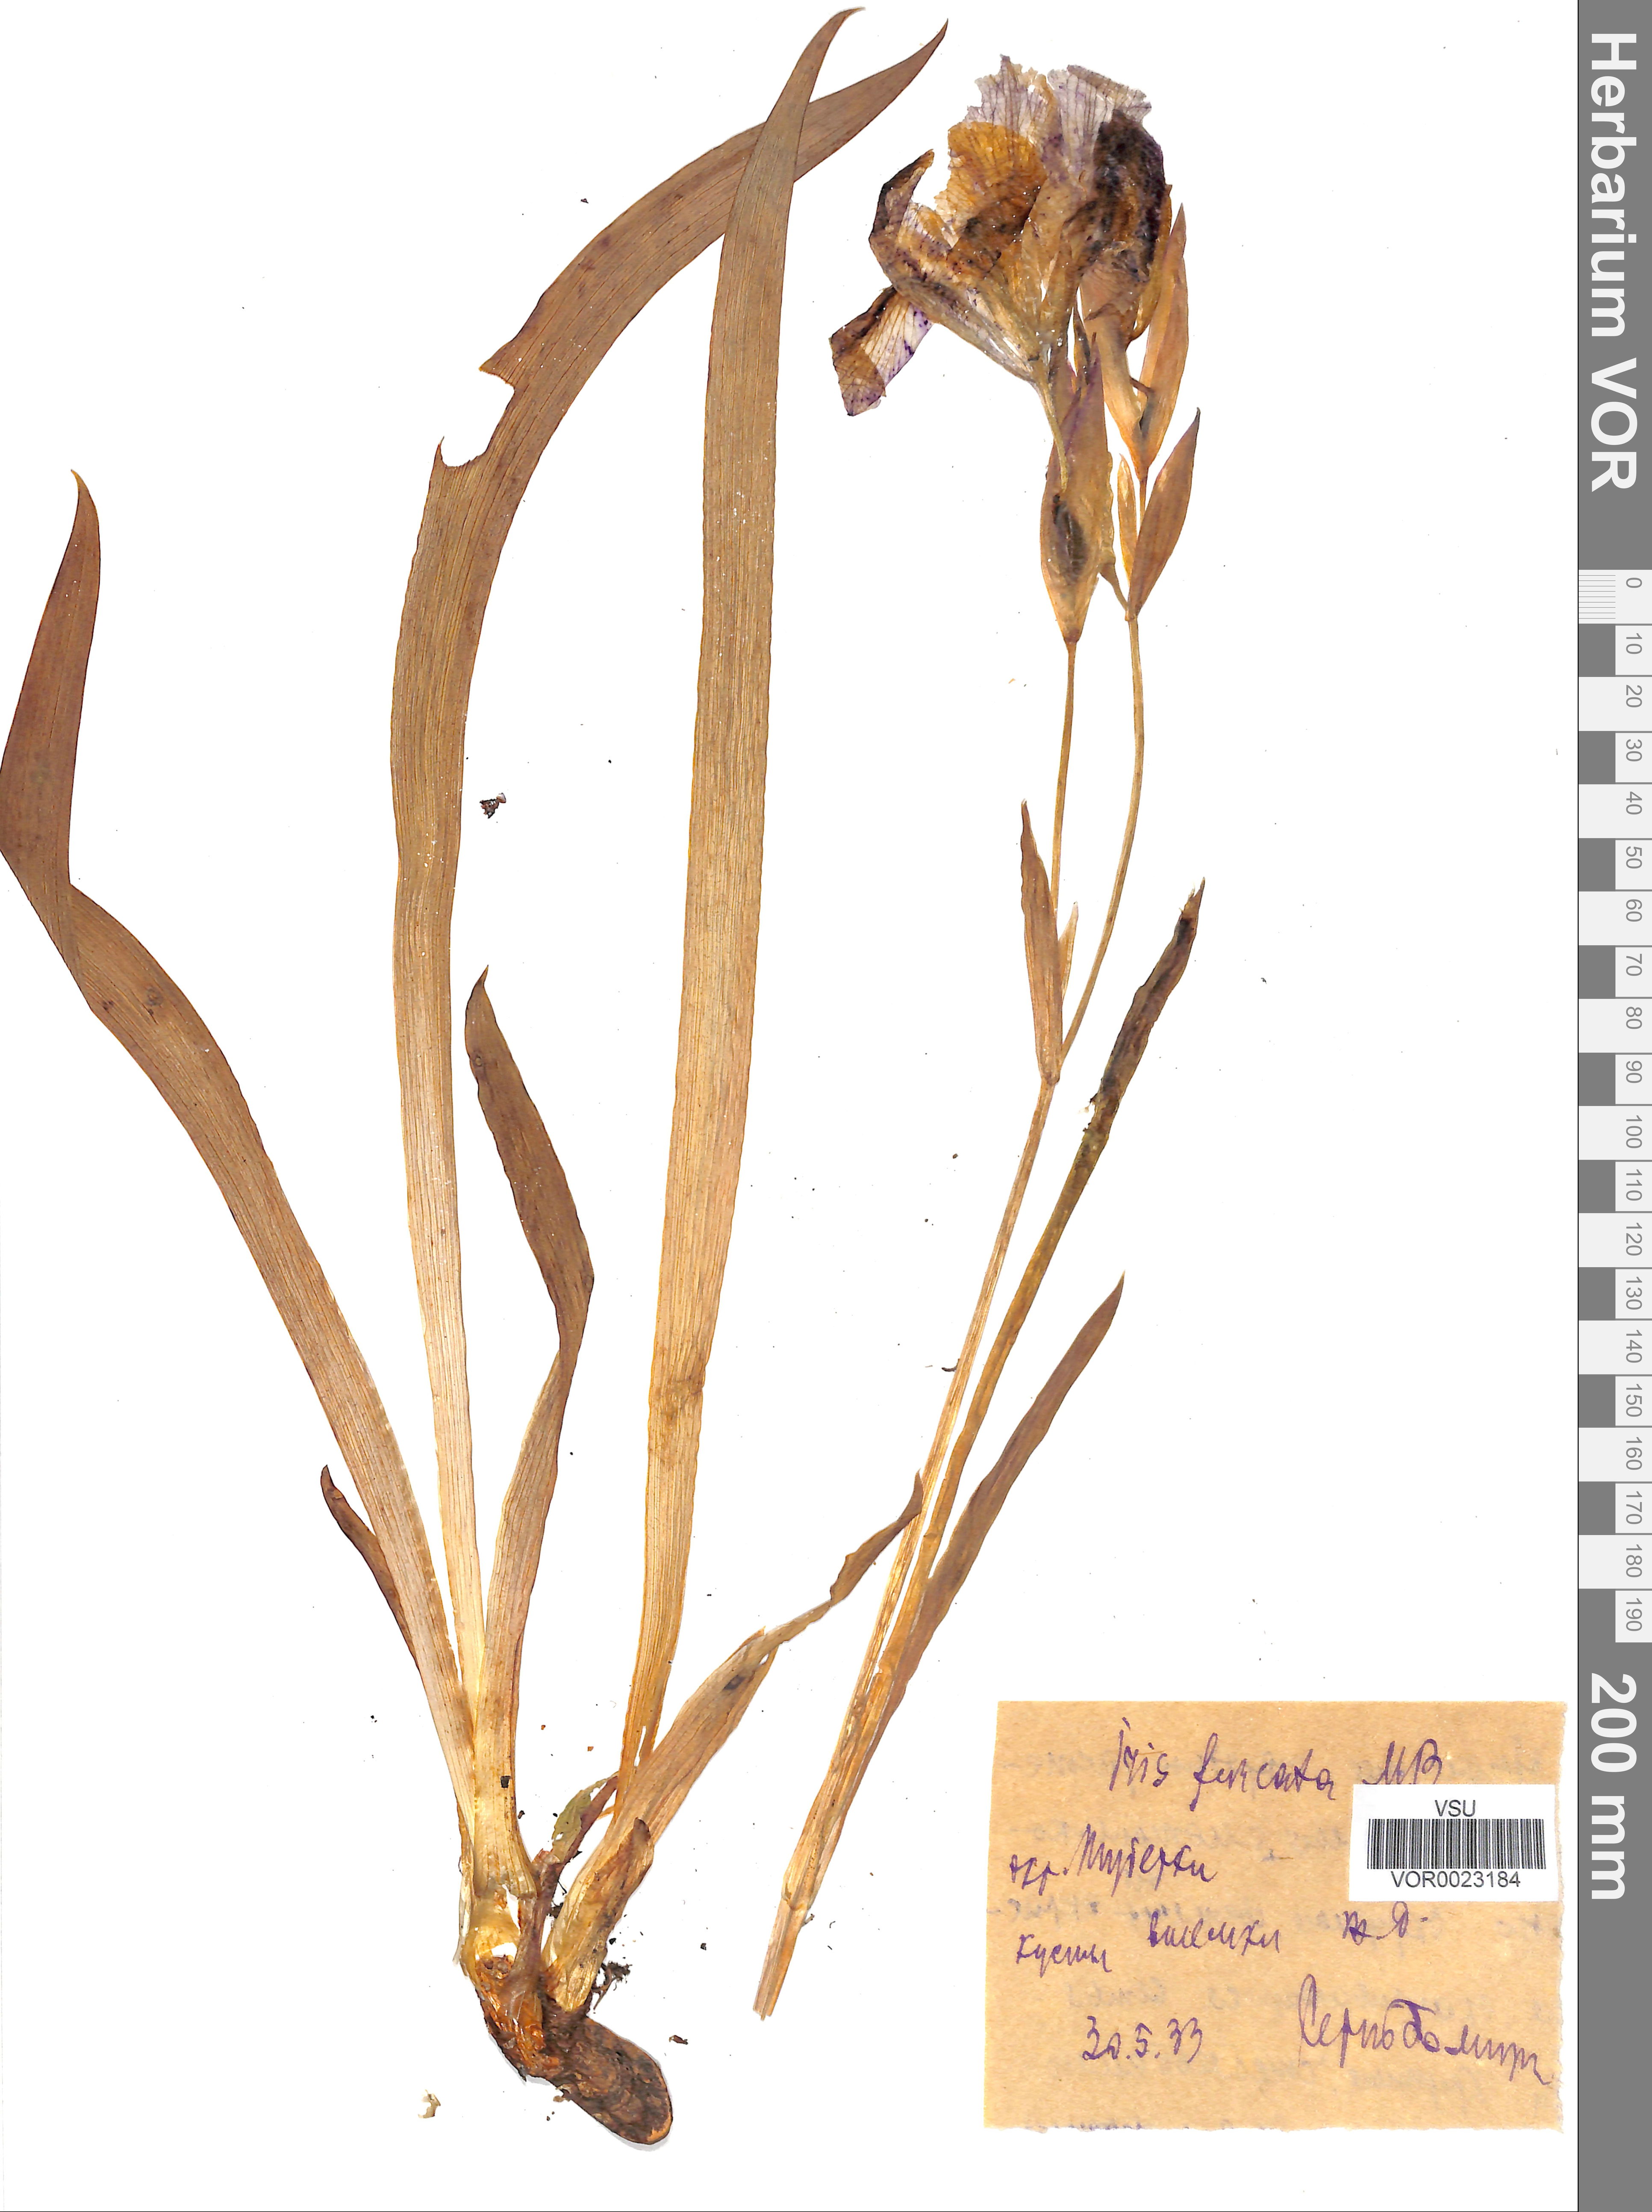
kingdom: Plantae
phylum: Tracheophyta
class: Liliopsida
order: Asparagales
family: Iridaceae
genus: Iris
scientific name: Iris aphylla
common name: Stool iris
